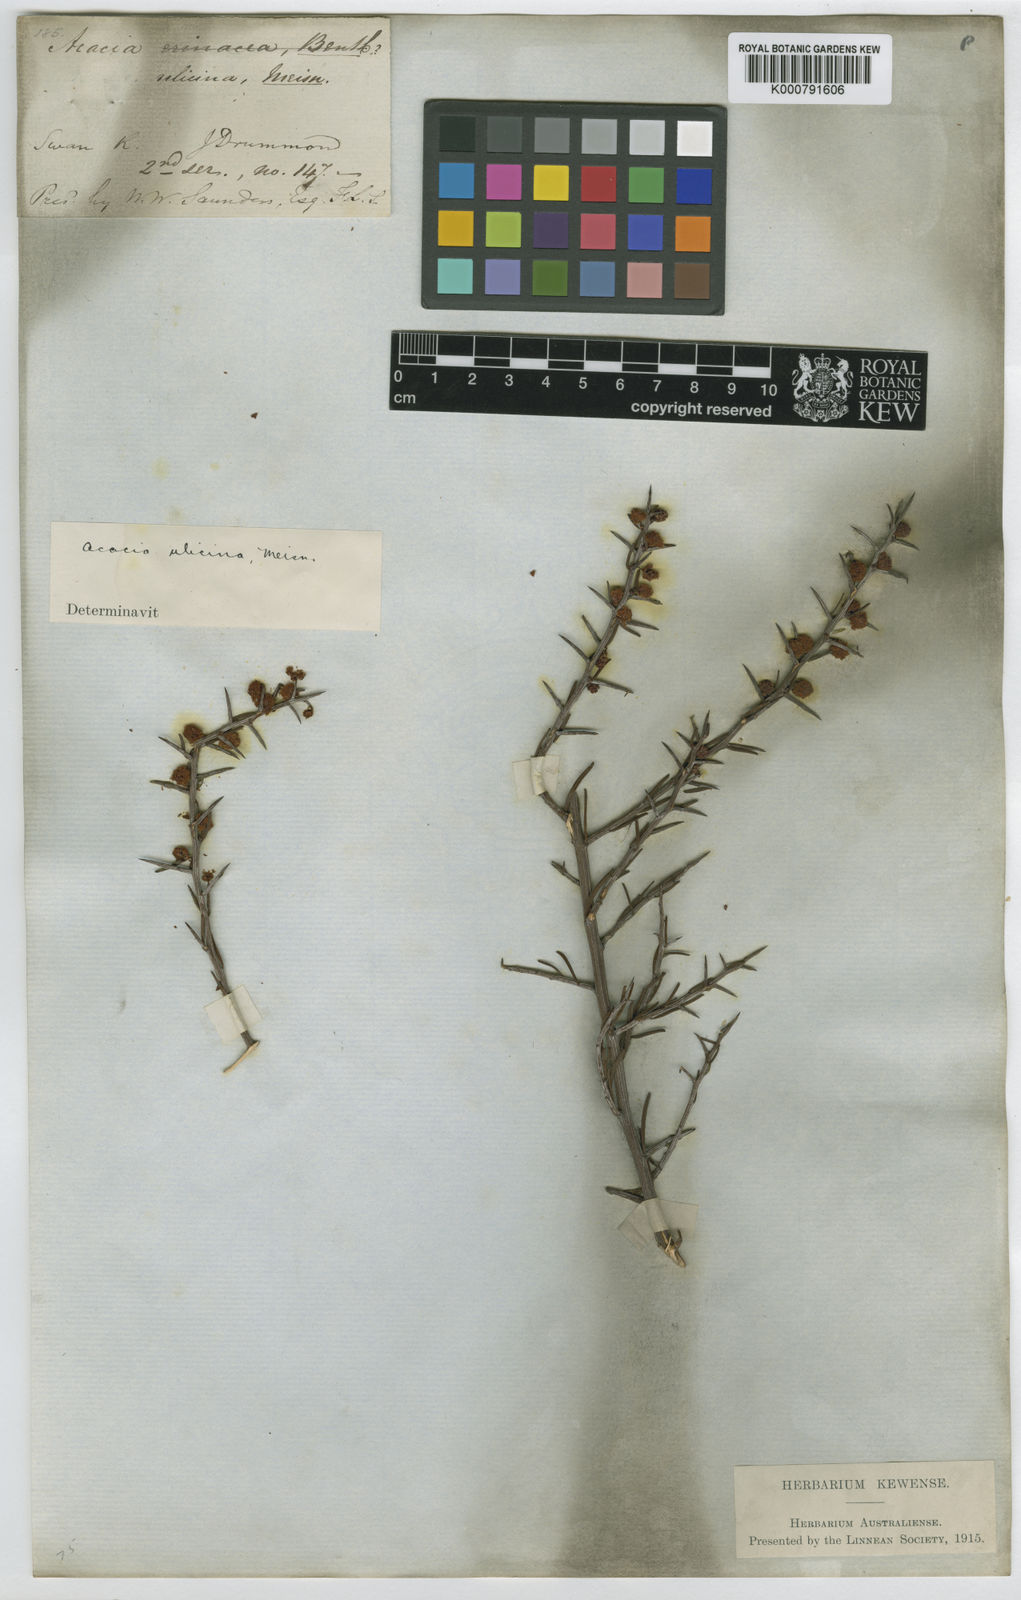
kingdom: Plantae
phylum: Tracheophyta
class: Magnoliopsida
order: Fabales
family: Fabaceae
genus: Acacia
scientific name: Acacia ulicina
